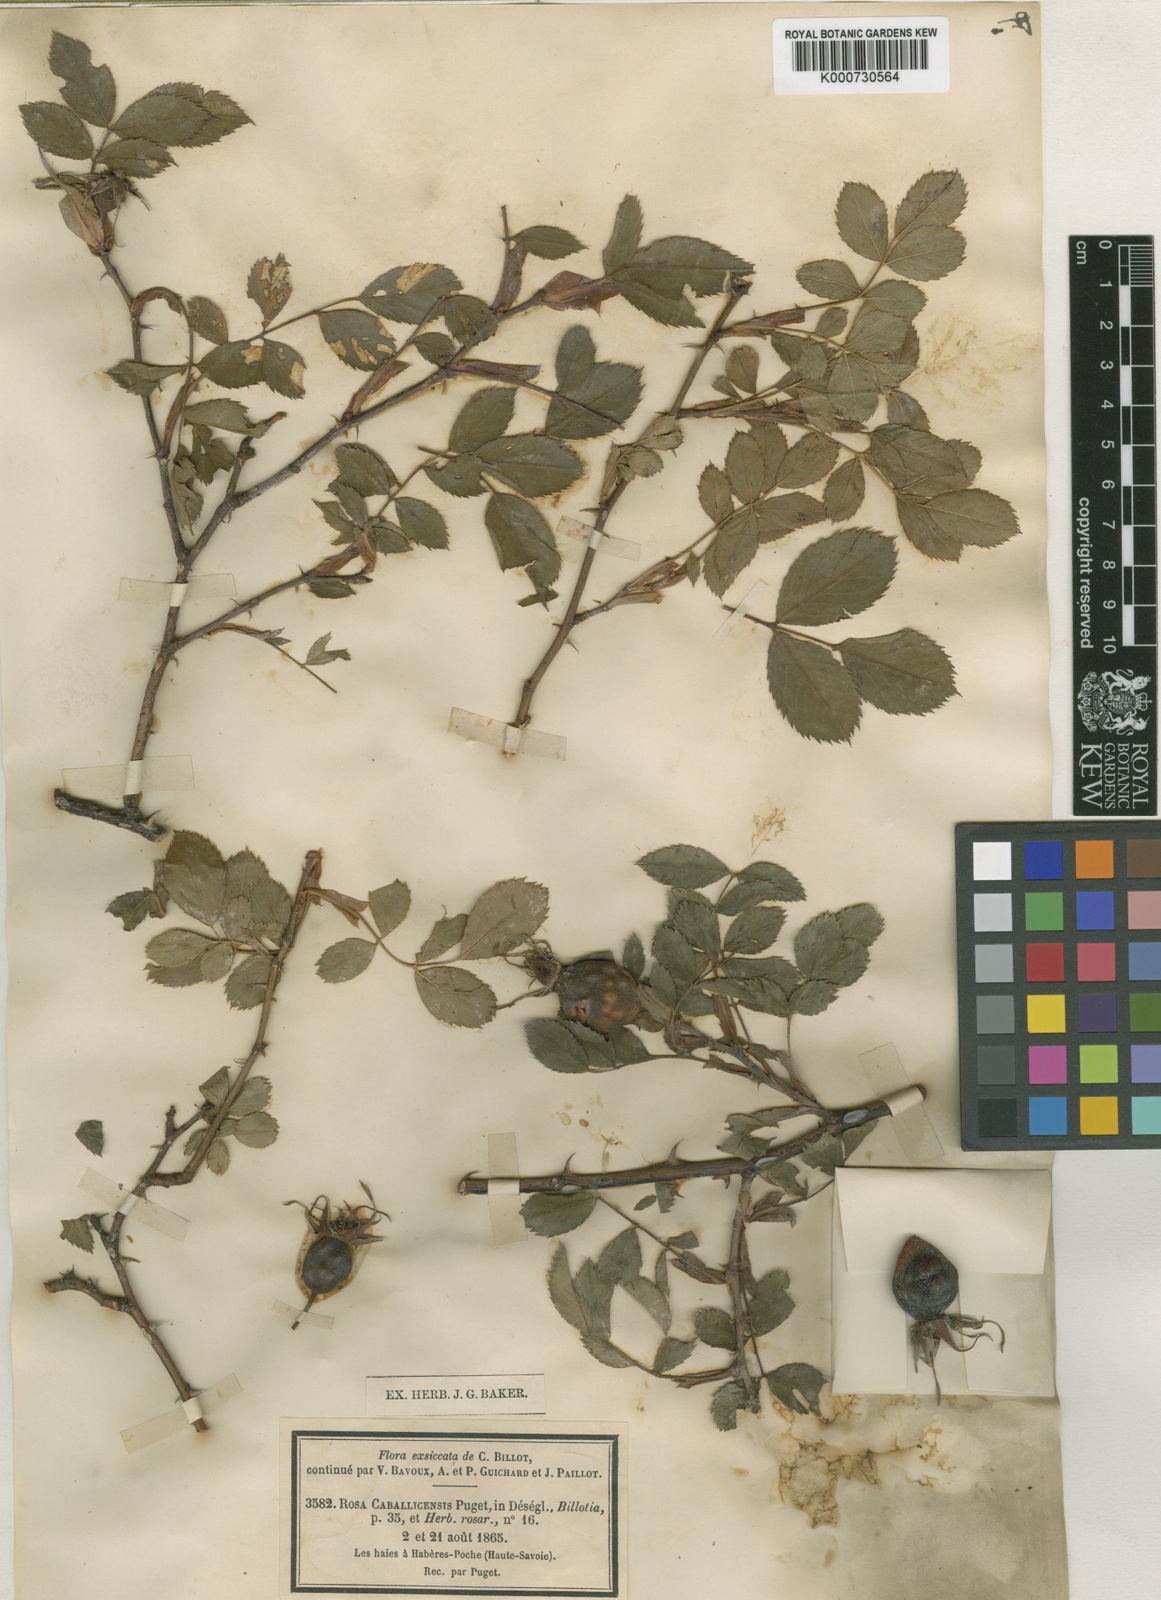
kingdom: Plantae
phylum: Tracheophyta
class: Magnoliopsida
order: Rosales
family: Rosaceae
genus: Rosa
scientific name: Rosa dumalis
